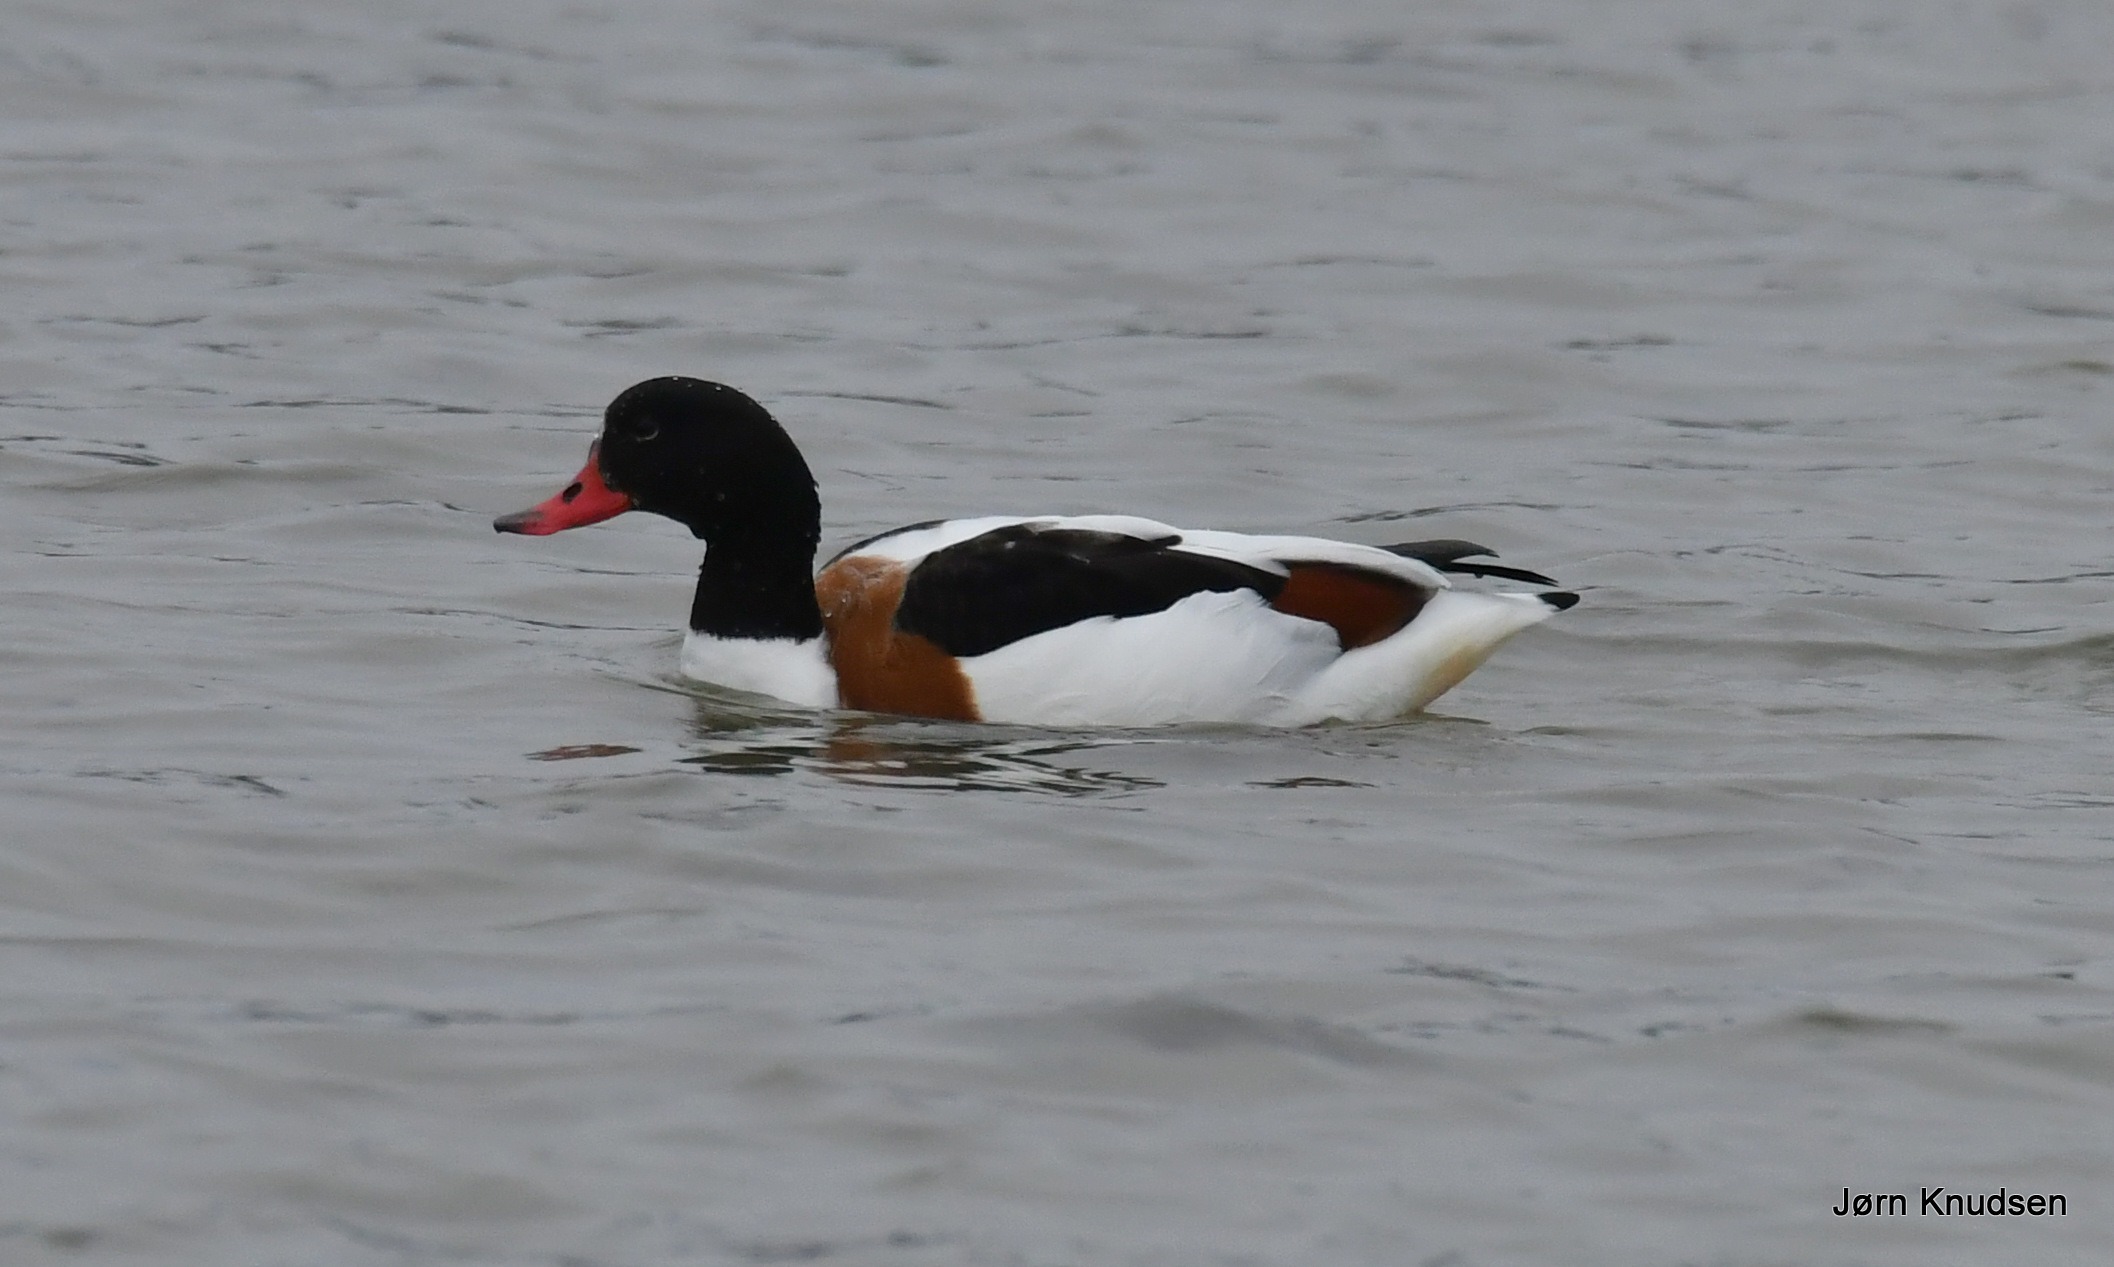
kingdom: Animalia
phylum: Chordata
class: Aves
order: Anseriformes
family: Anatidae
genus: Tadorna
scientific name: Tadorna tadorna
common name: Gravand
